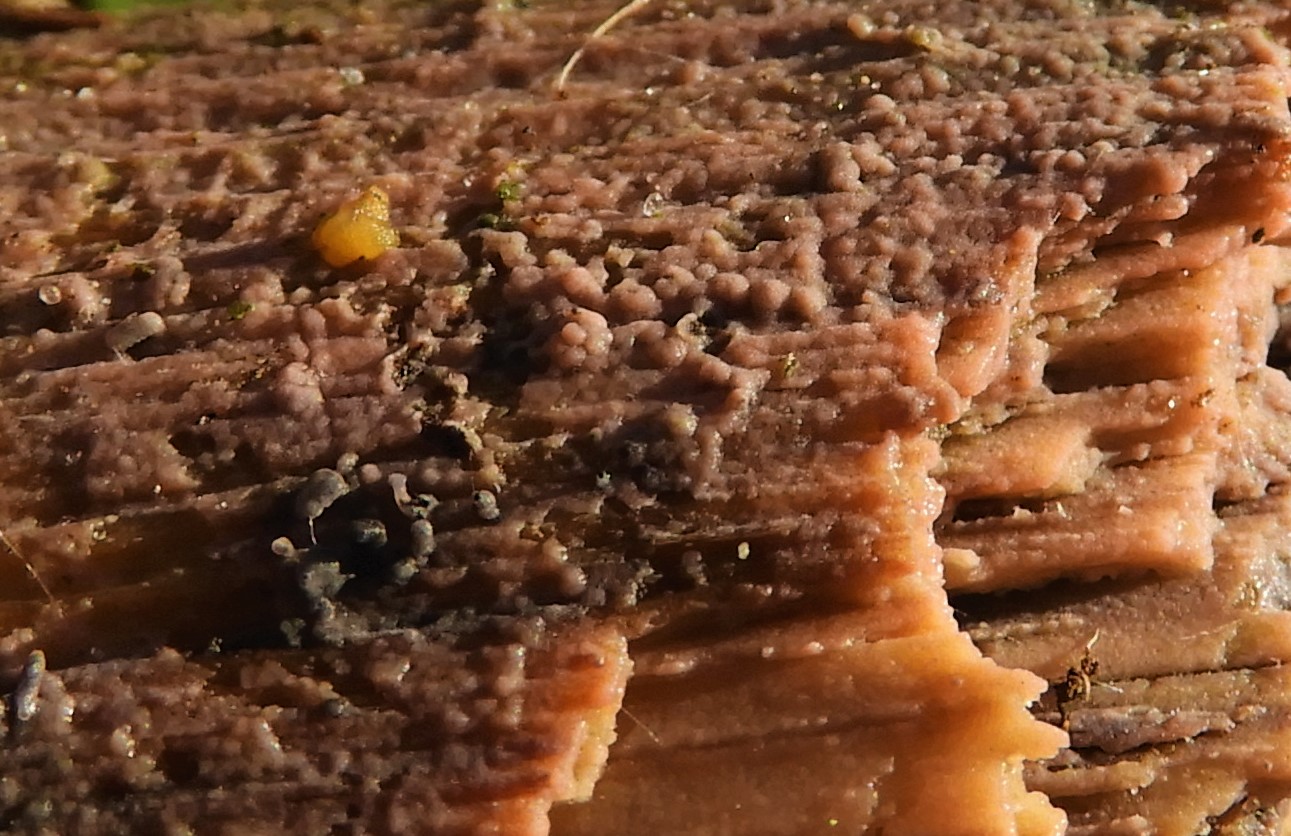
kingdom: Fungi
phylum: Basidiomycota
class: Agaricomycetes
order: Corticiales
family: Corticiaceae
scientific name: Corticiaceae
